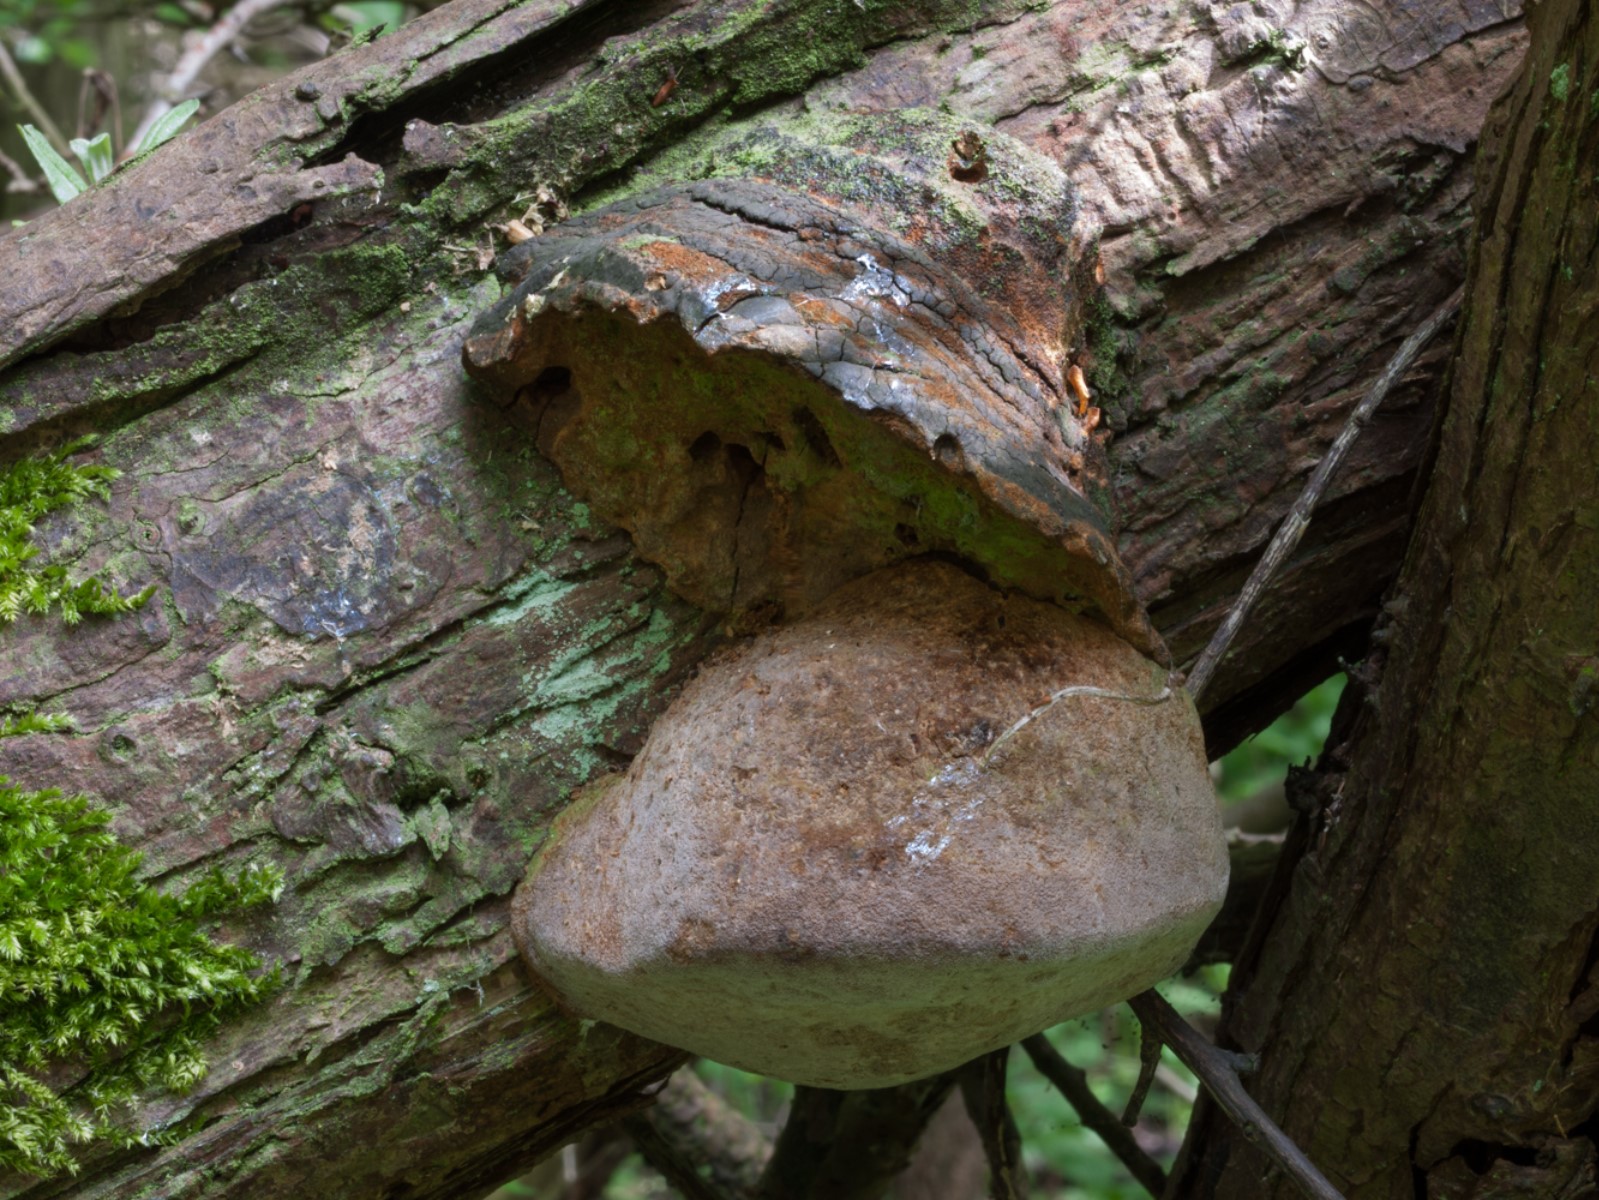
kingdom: Fungi
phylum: Basidiomycota
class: Agaricomycetes
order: Hymenochaetales
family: Hymenochaetaceae
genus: Fomitiporia
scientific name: Fomitiporia hippophaeicola
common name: havtorn-ildporesvamp
